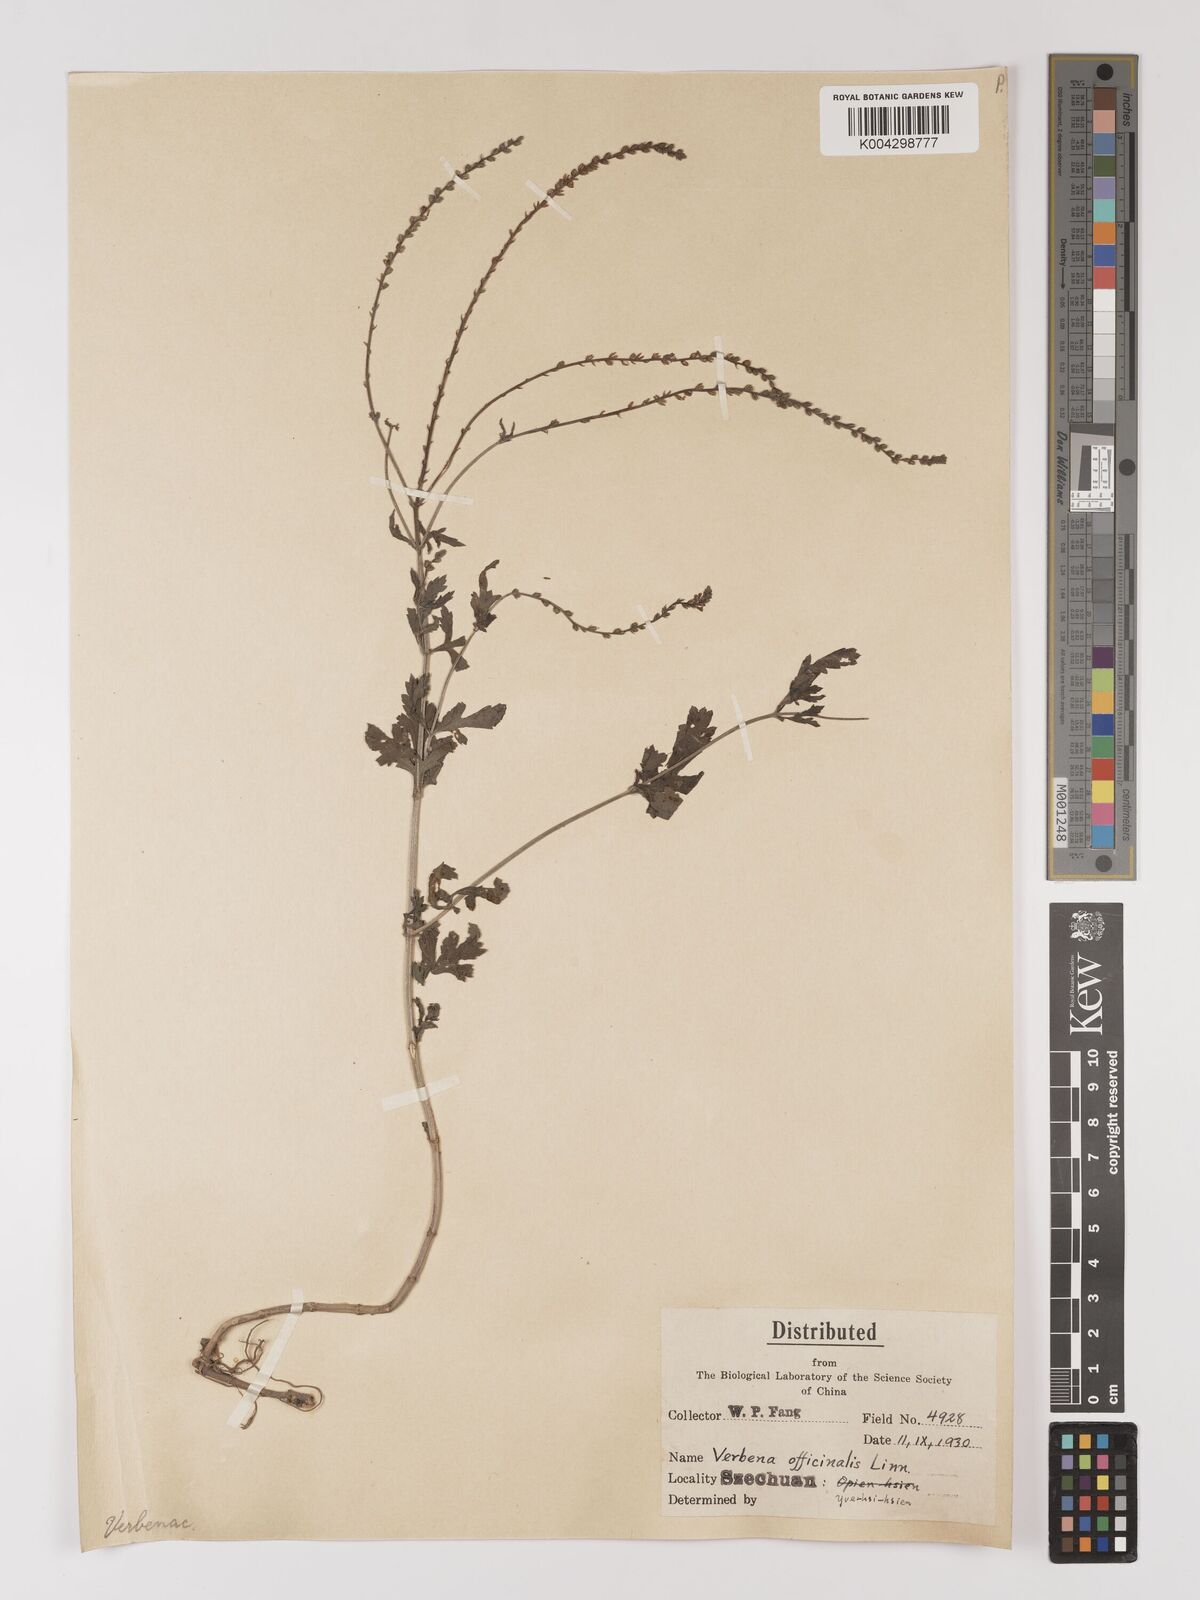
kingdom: Plantae
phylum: Tracheophyta
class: Magnoliopsida
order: Lamiales
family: Verbenaceae
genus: Verbena
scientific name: Verbena officinalis
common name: Vervain
